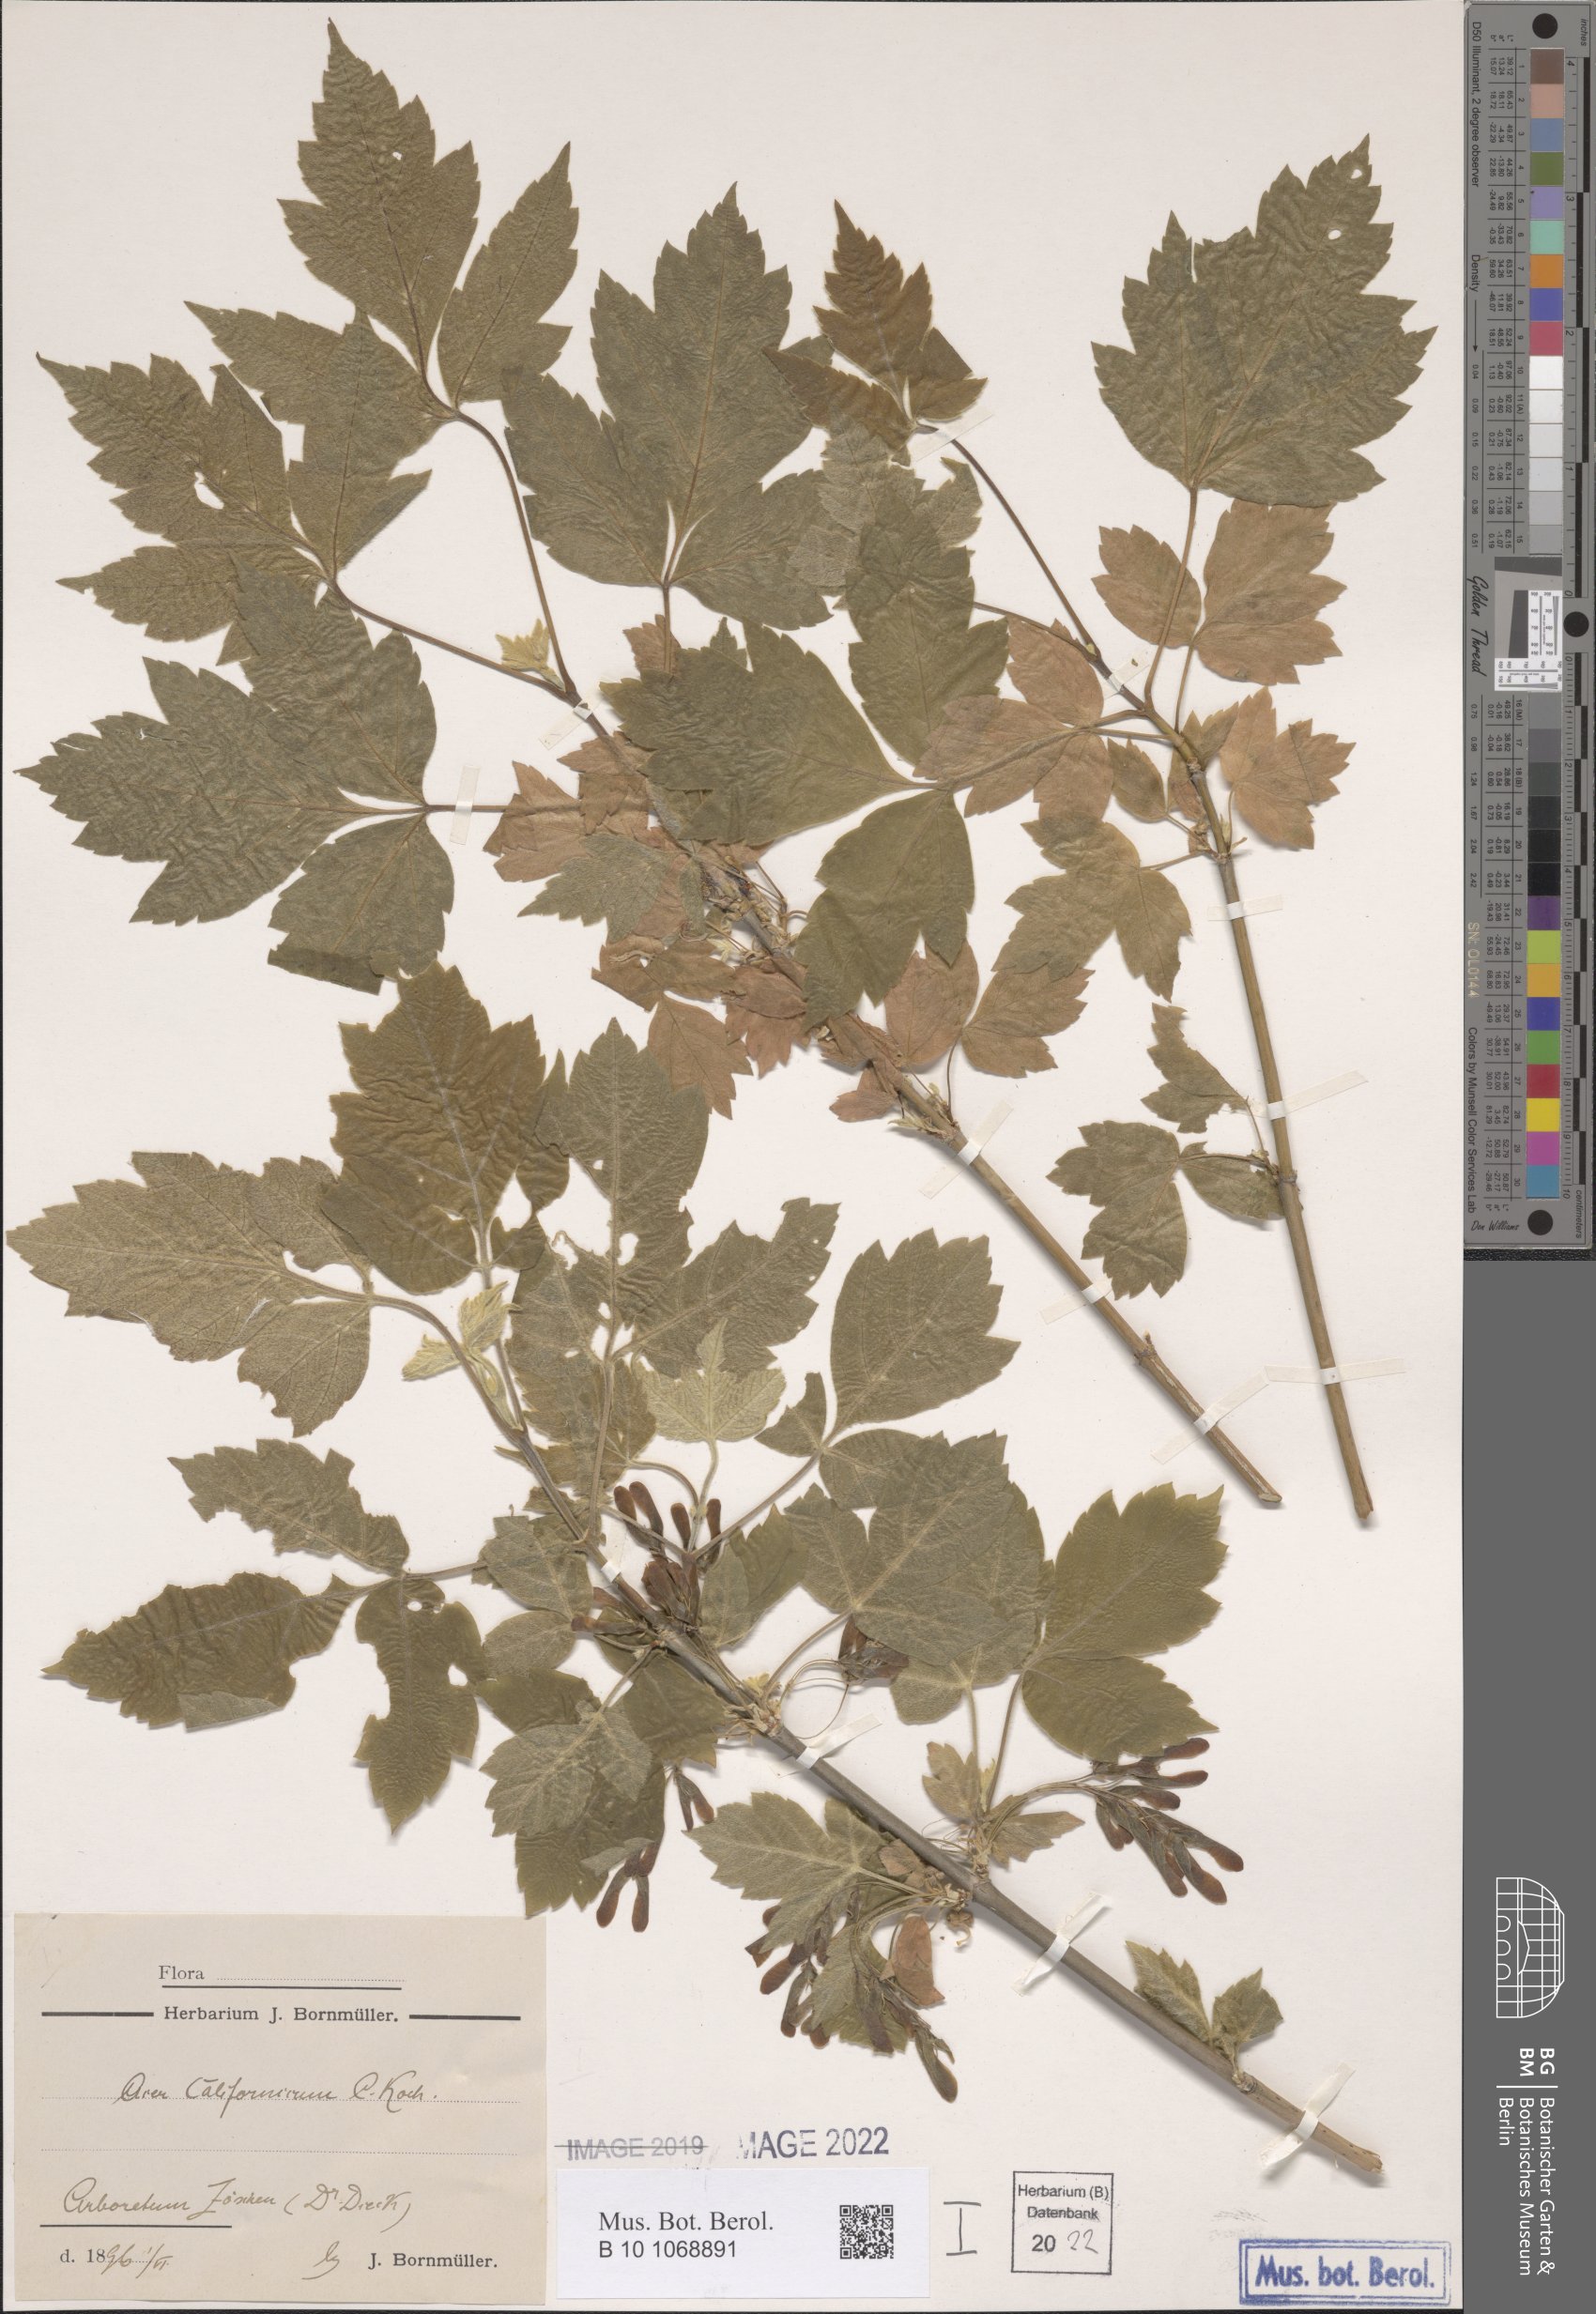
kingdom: Plantae
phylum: Tracheophyta
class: Magnoliopsida
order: Sapindales
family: Sapindaceae
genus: Acer
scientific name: Acer negundo
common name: Ashleaf maple
